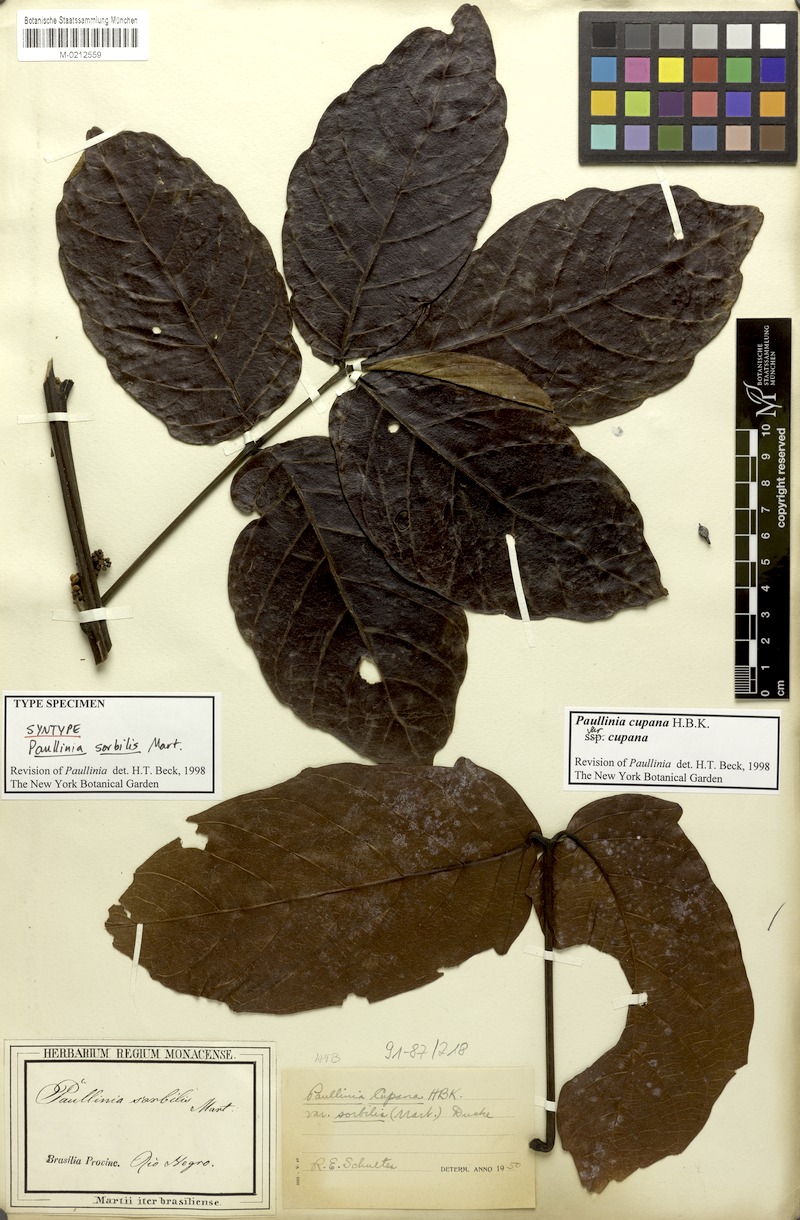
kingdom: Plantae
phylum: Tracheophyta
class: Magnoliopsida
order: Sapindales
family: Sapindaceae
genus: Paullinia
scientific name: Paullinia cupana
